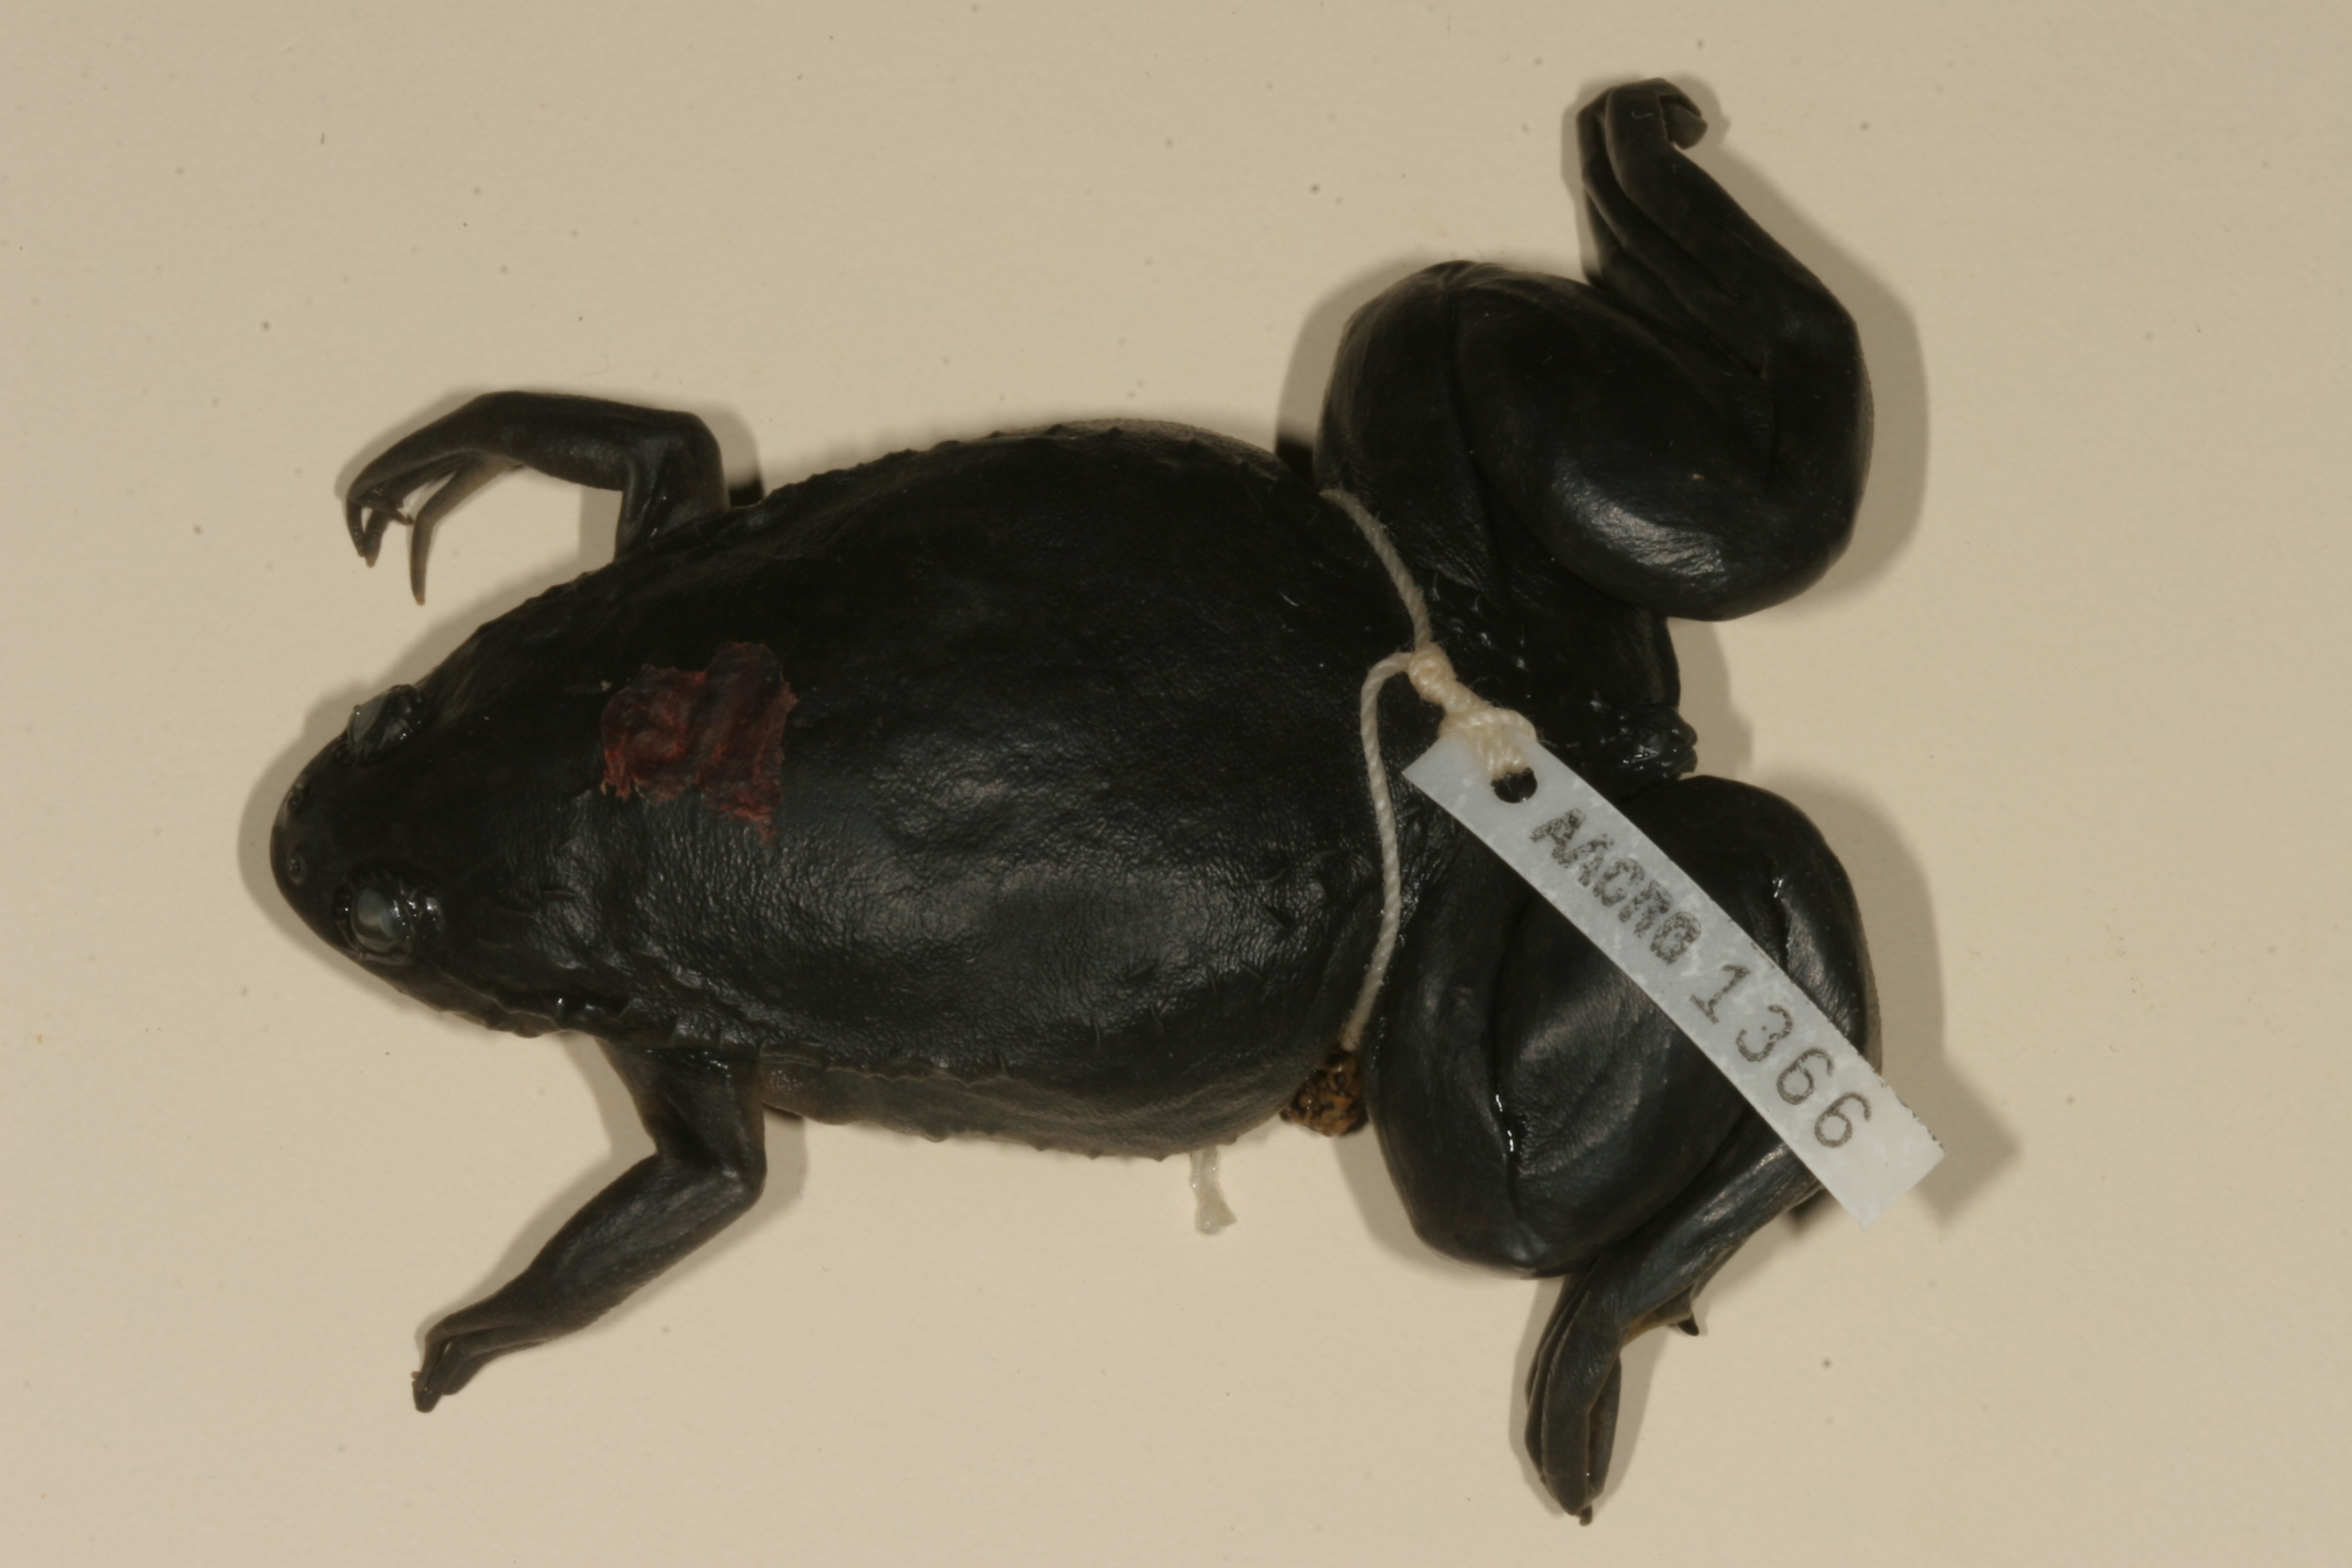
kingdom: Animalia
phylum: Chordata
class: Amphibia
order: Anura
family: Pipidae
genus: Xenopus
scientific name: Xenopus laevis
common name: African clawed frog
